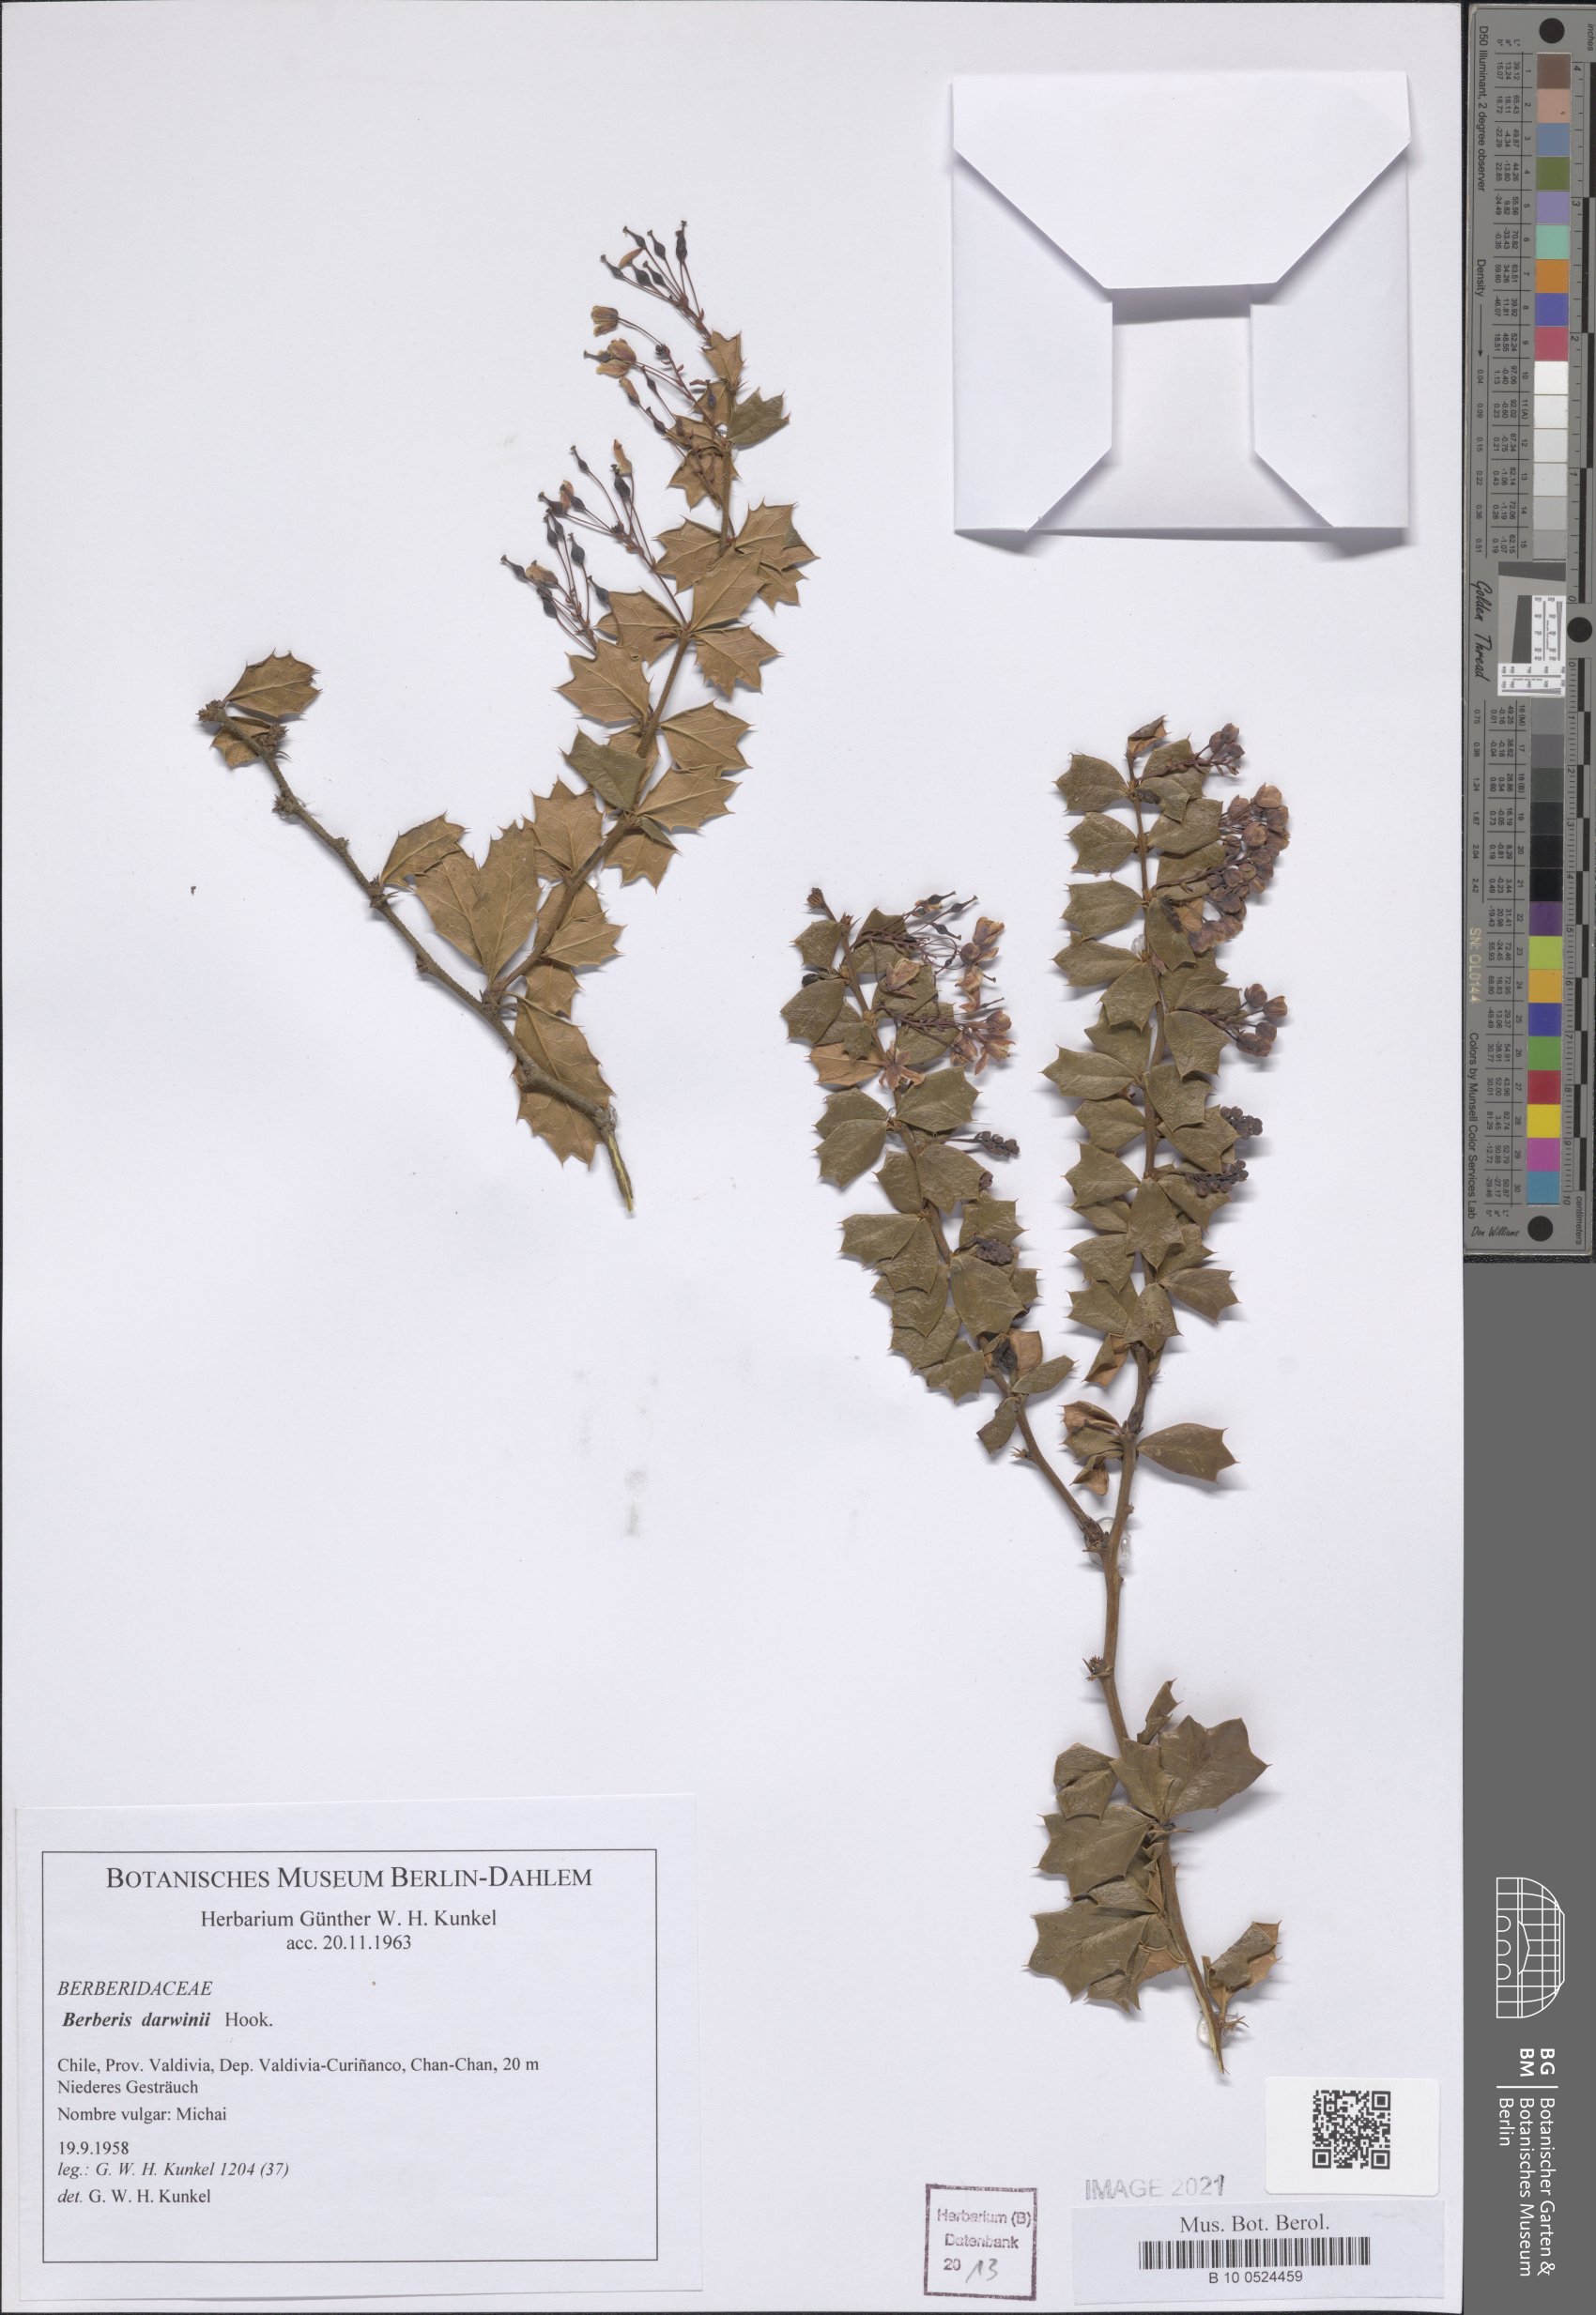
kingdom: Plantae
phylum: Tracheophyta
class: Magnoliopsida
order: Ranunculales
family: Berberidaceae
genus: Berberis
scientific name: Berberis darwinii
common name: Darwin's barberry
